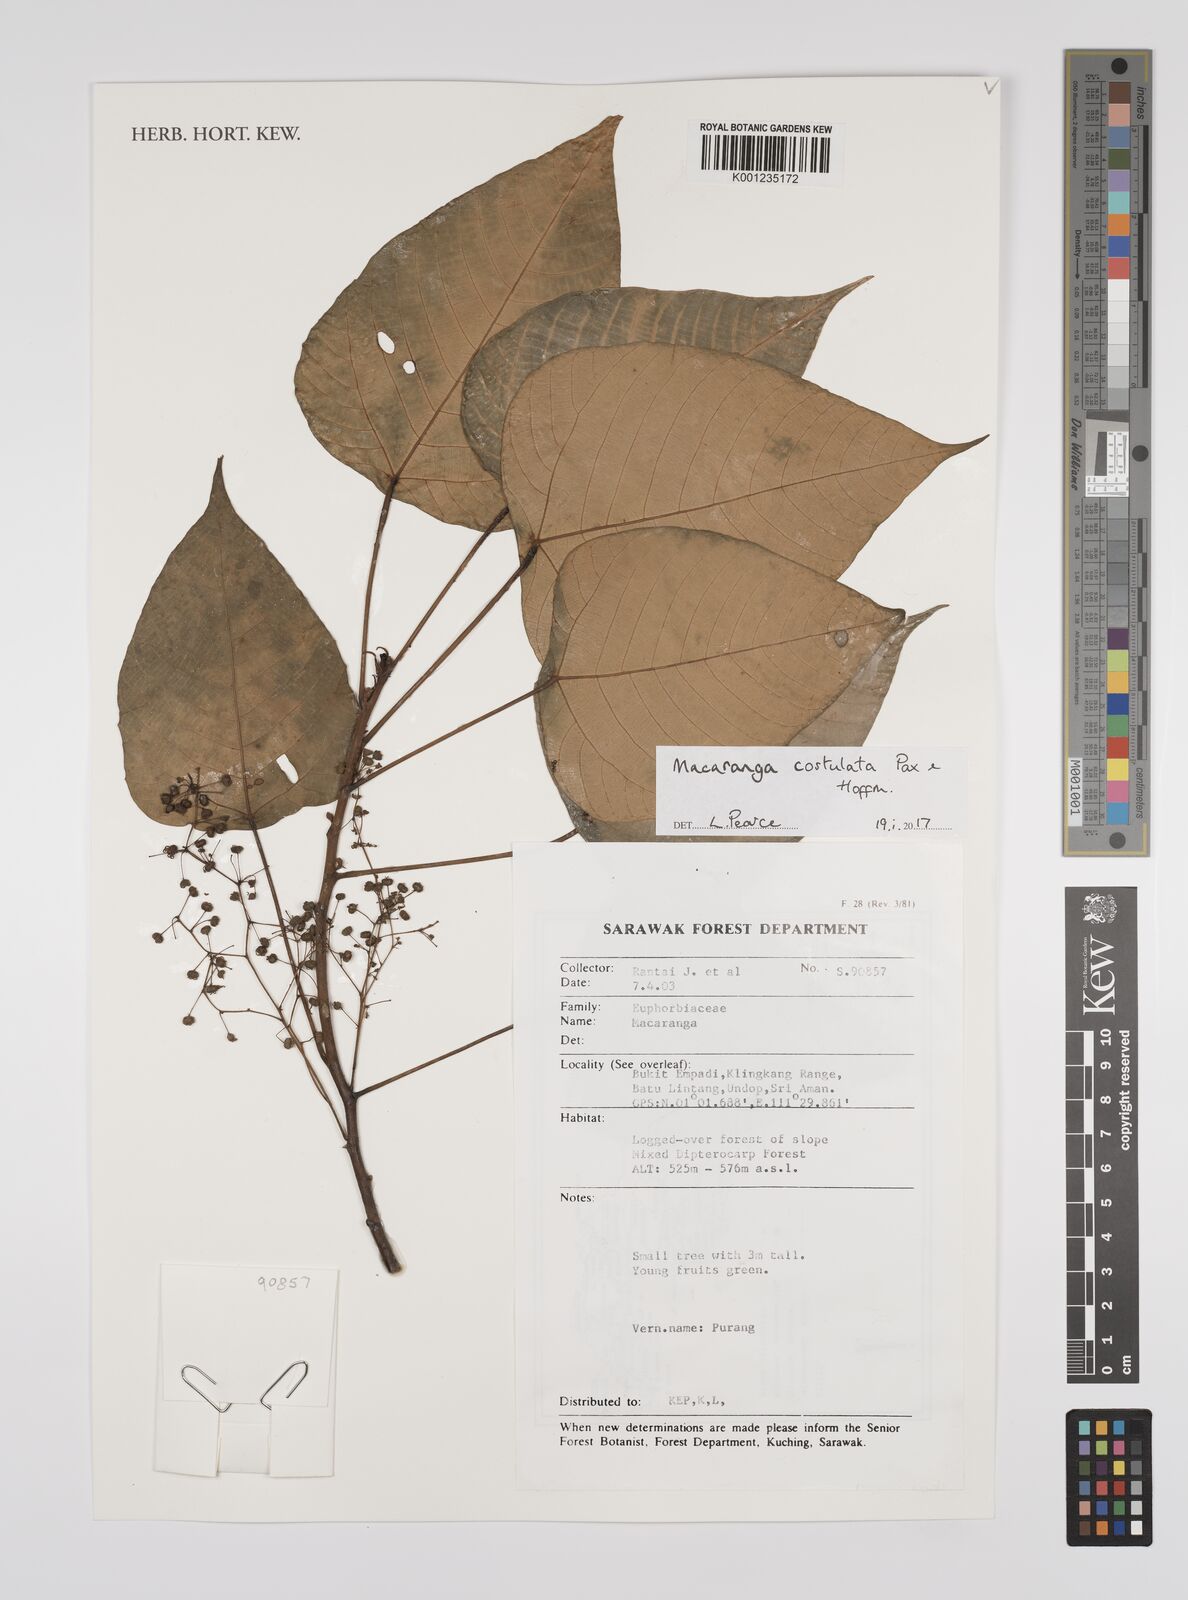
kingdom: Plantae
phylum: Tracheophyta
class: Magnoliopsida
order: Malpighiales
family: Euphorbiaceae
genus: Macaranga
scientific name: Macaranga costulata
